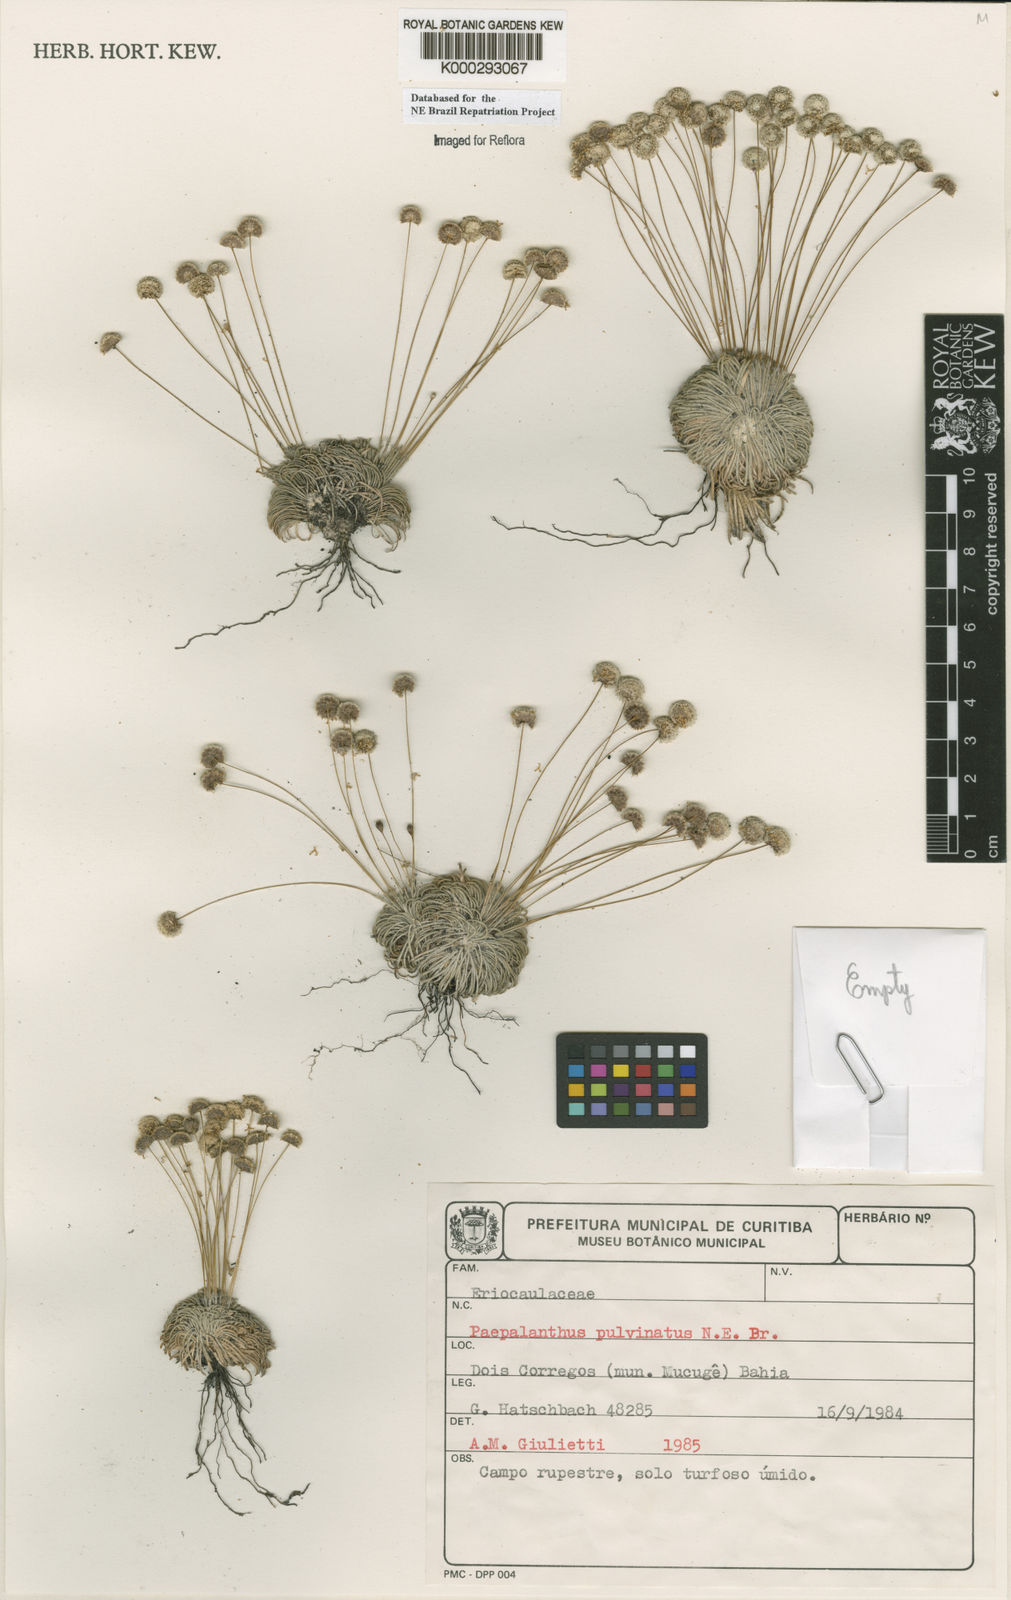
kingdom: Plantae
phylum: Tracheophyta
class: Liliopsida
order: Poales
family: Eriocaulaceae
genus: Paepalanthus
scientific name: Paepalanthus pulvinatus
